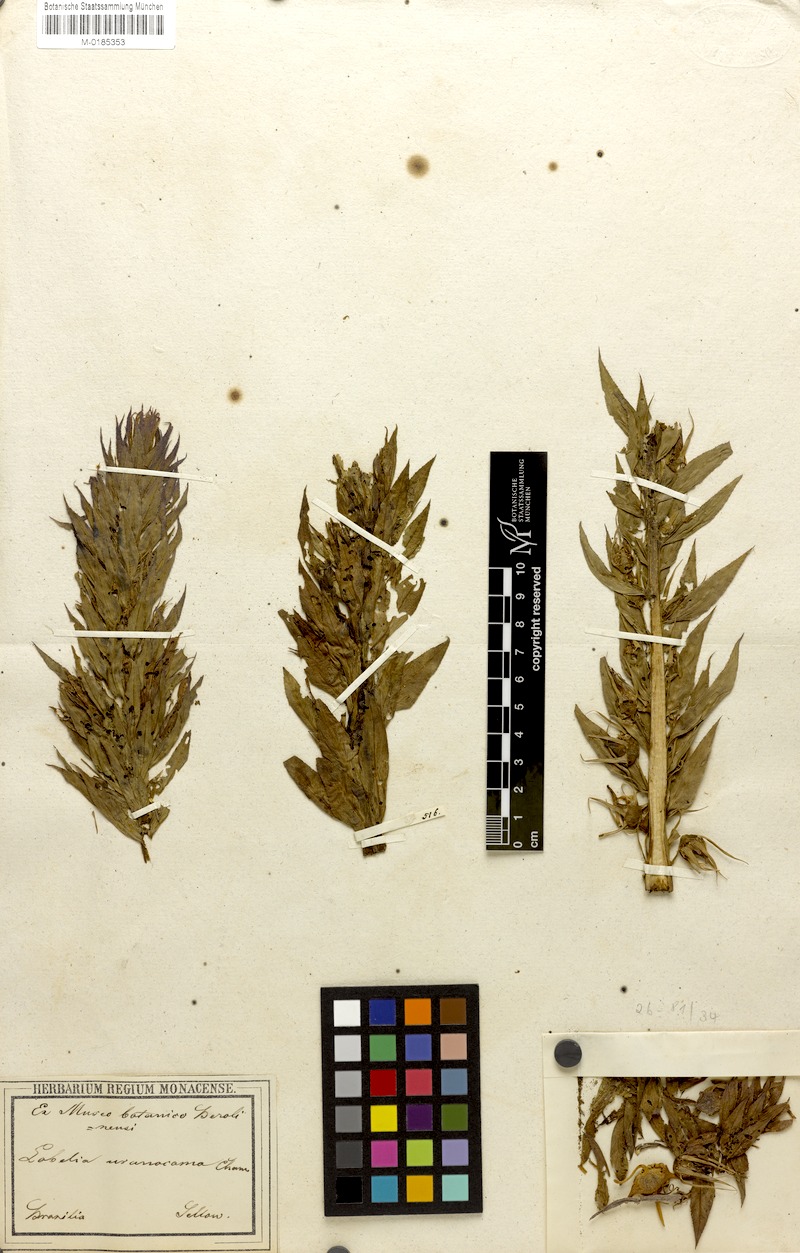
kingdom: Plantae
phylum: Tracheophyta
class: Magnoliopsida
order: Asterales
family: Campanulaceae
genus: Lobelia
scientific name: Lobelia fistulosa
